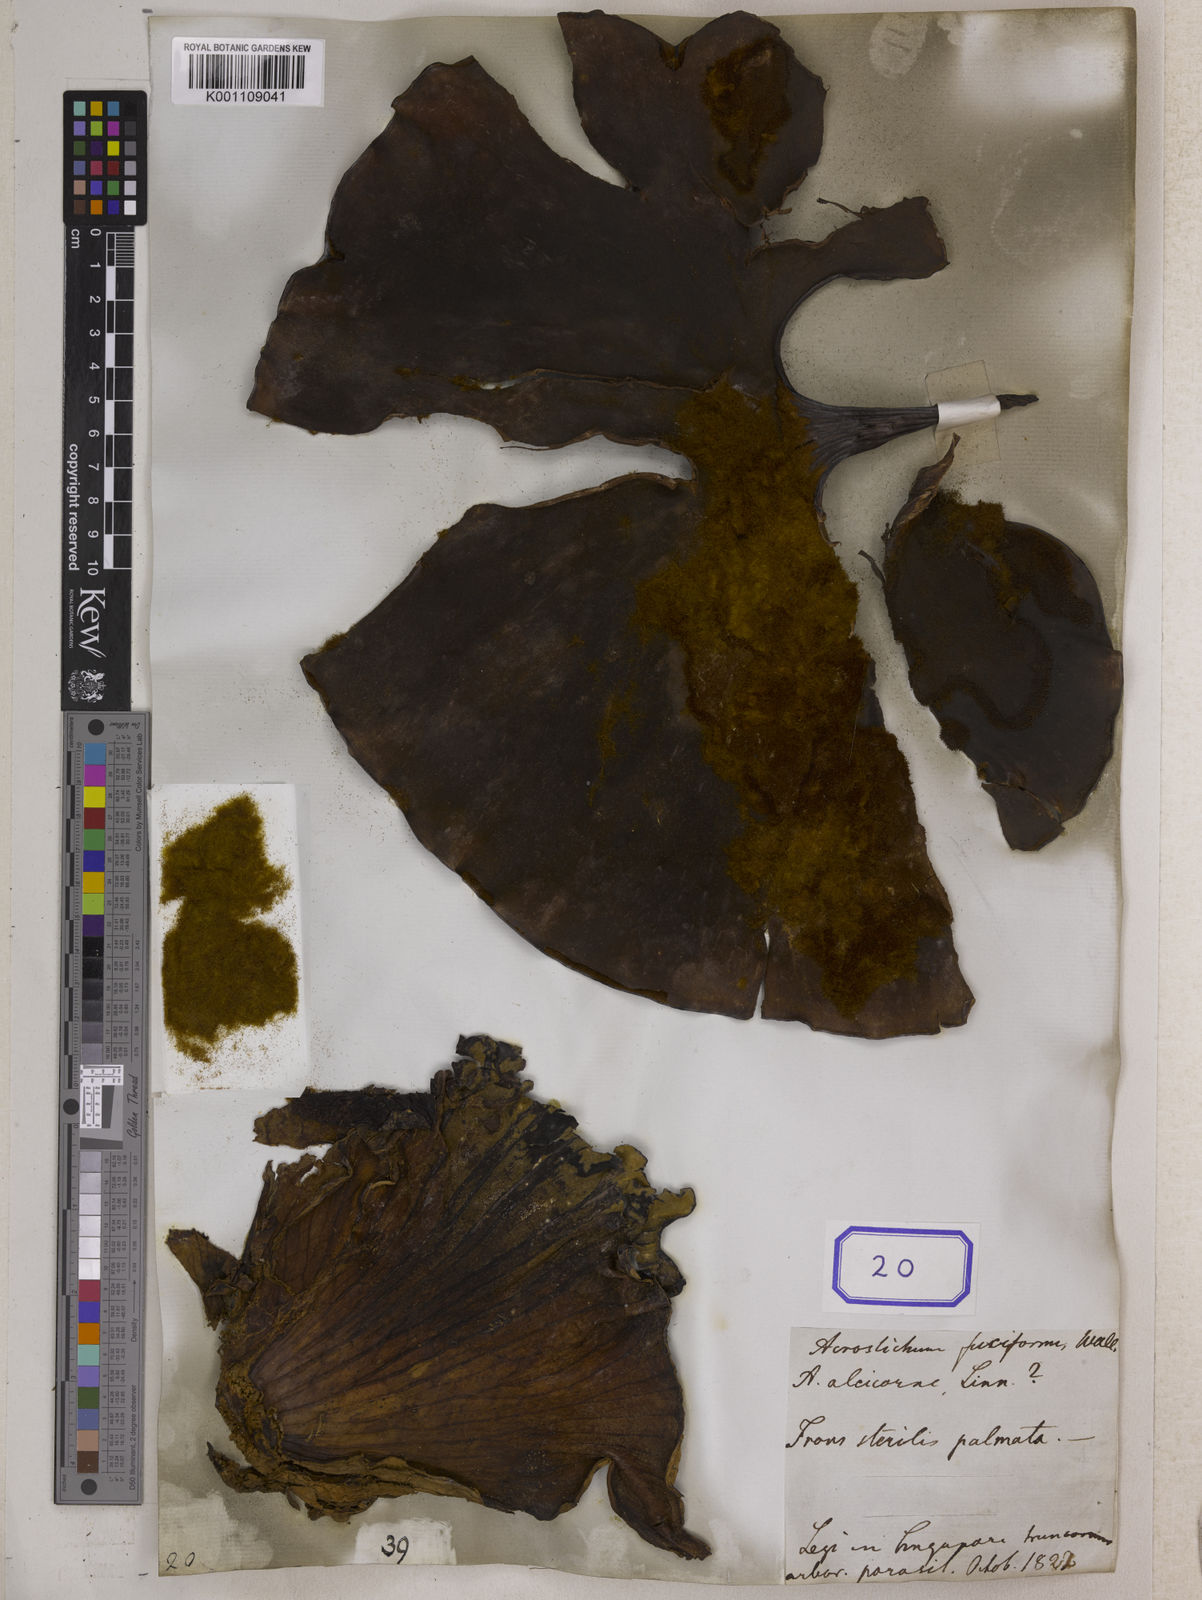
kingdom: Plantae
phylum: Tracheophyta
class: Polypodiopsida
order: Polypodiales
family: Polypodiaceae
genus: Platycerium
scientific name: Platycerium coronarium
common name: Elkhorn fern
